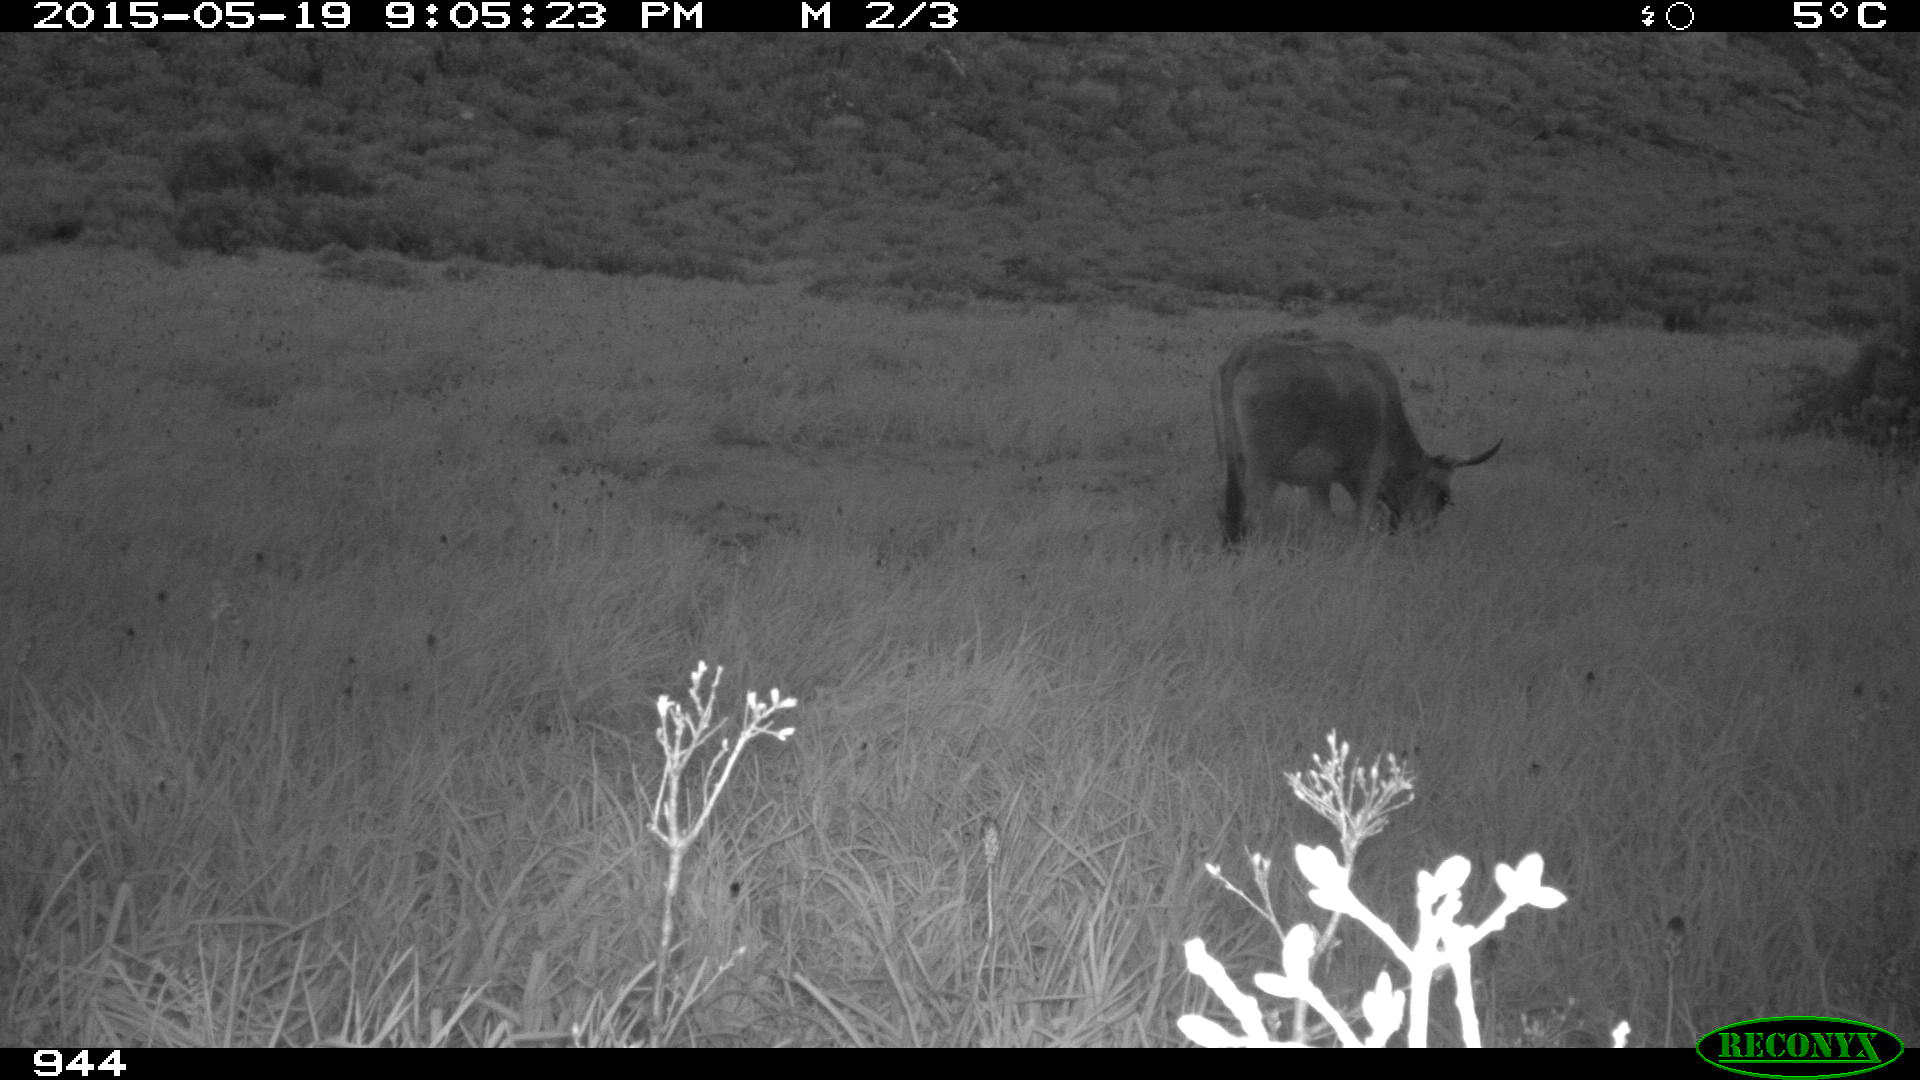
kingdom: Animalia
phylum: Chordata
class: Mammalia
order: Artiodactyla
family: Bovidae
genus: Bos
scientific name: Bos taurus
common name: Domesticated cattle
